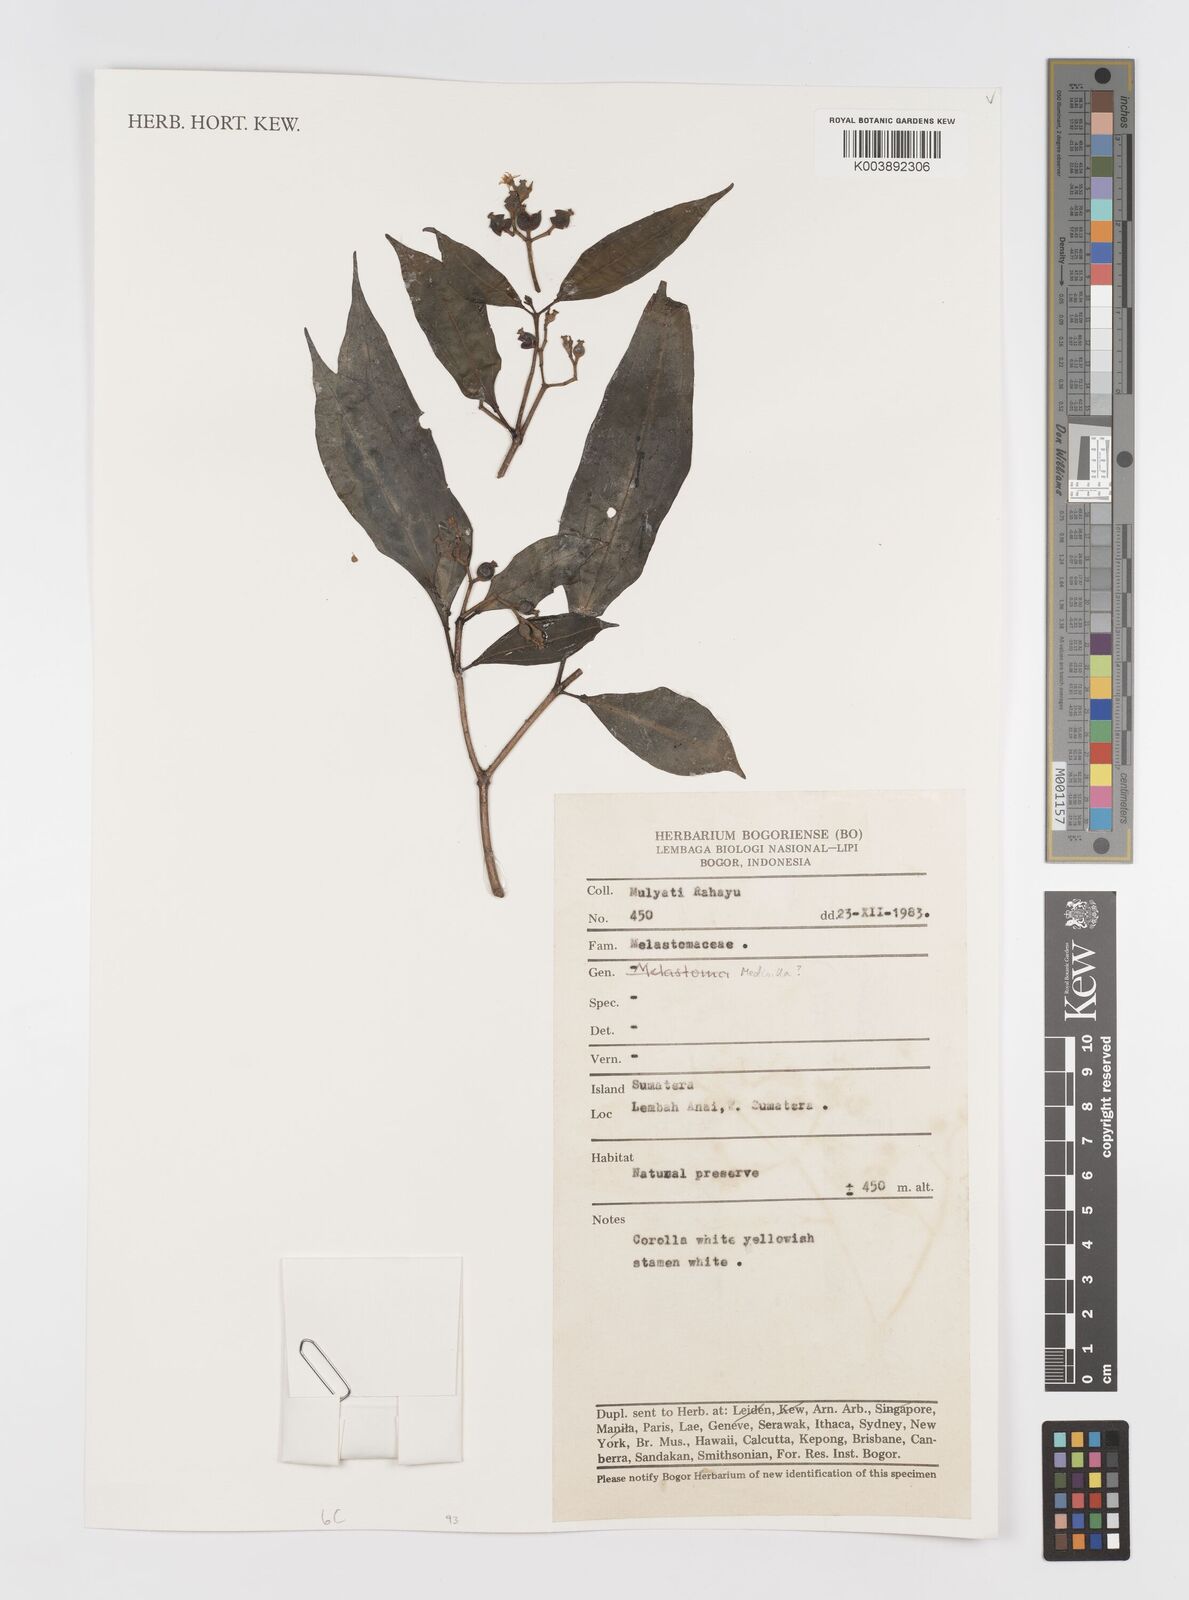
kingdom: Plantae
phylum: Tracheophyta
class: Magnoliopsida
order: Myrtales
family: Melastomataceae
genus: Medinilla
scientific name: Medinilla
